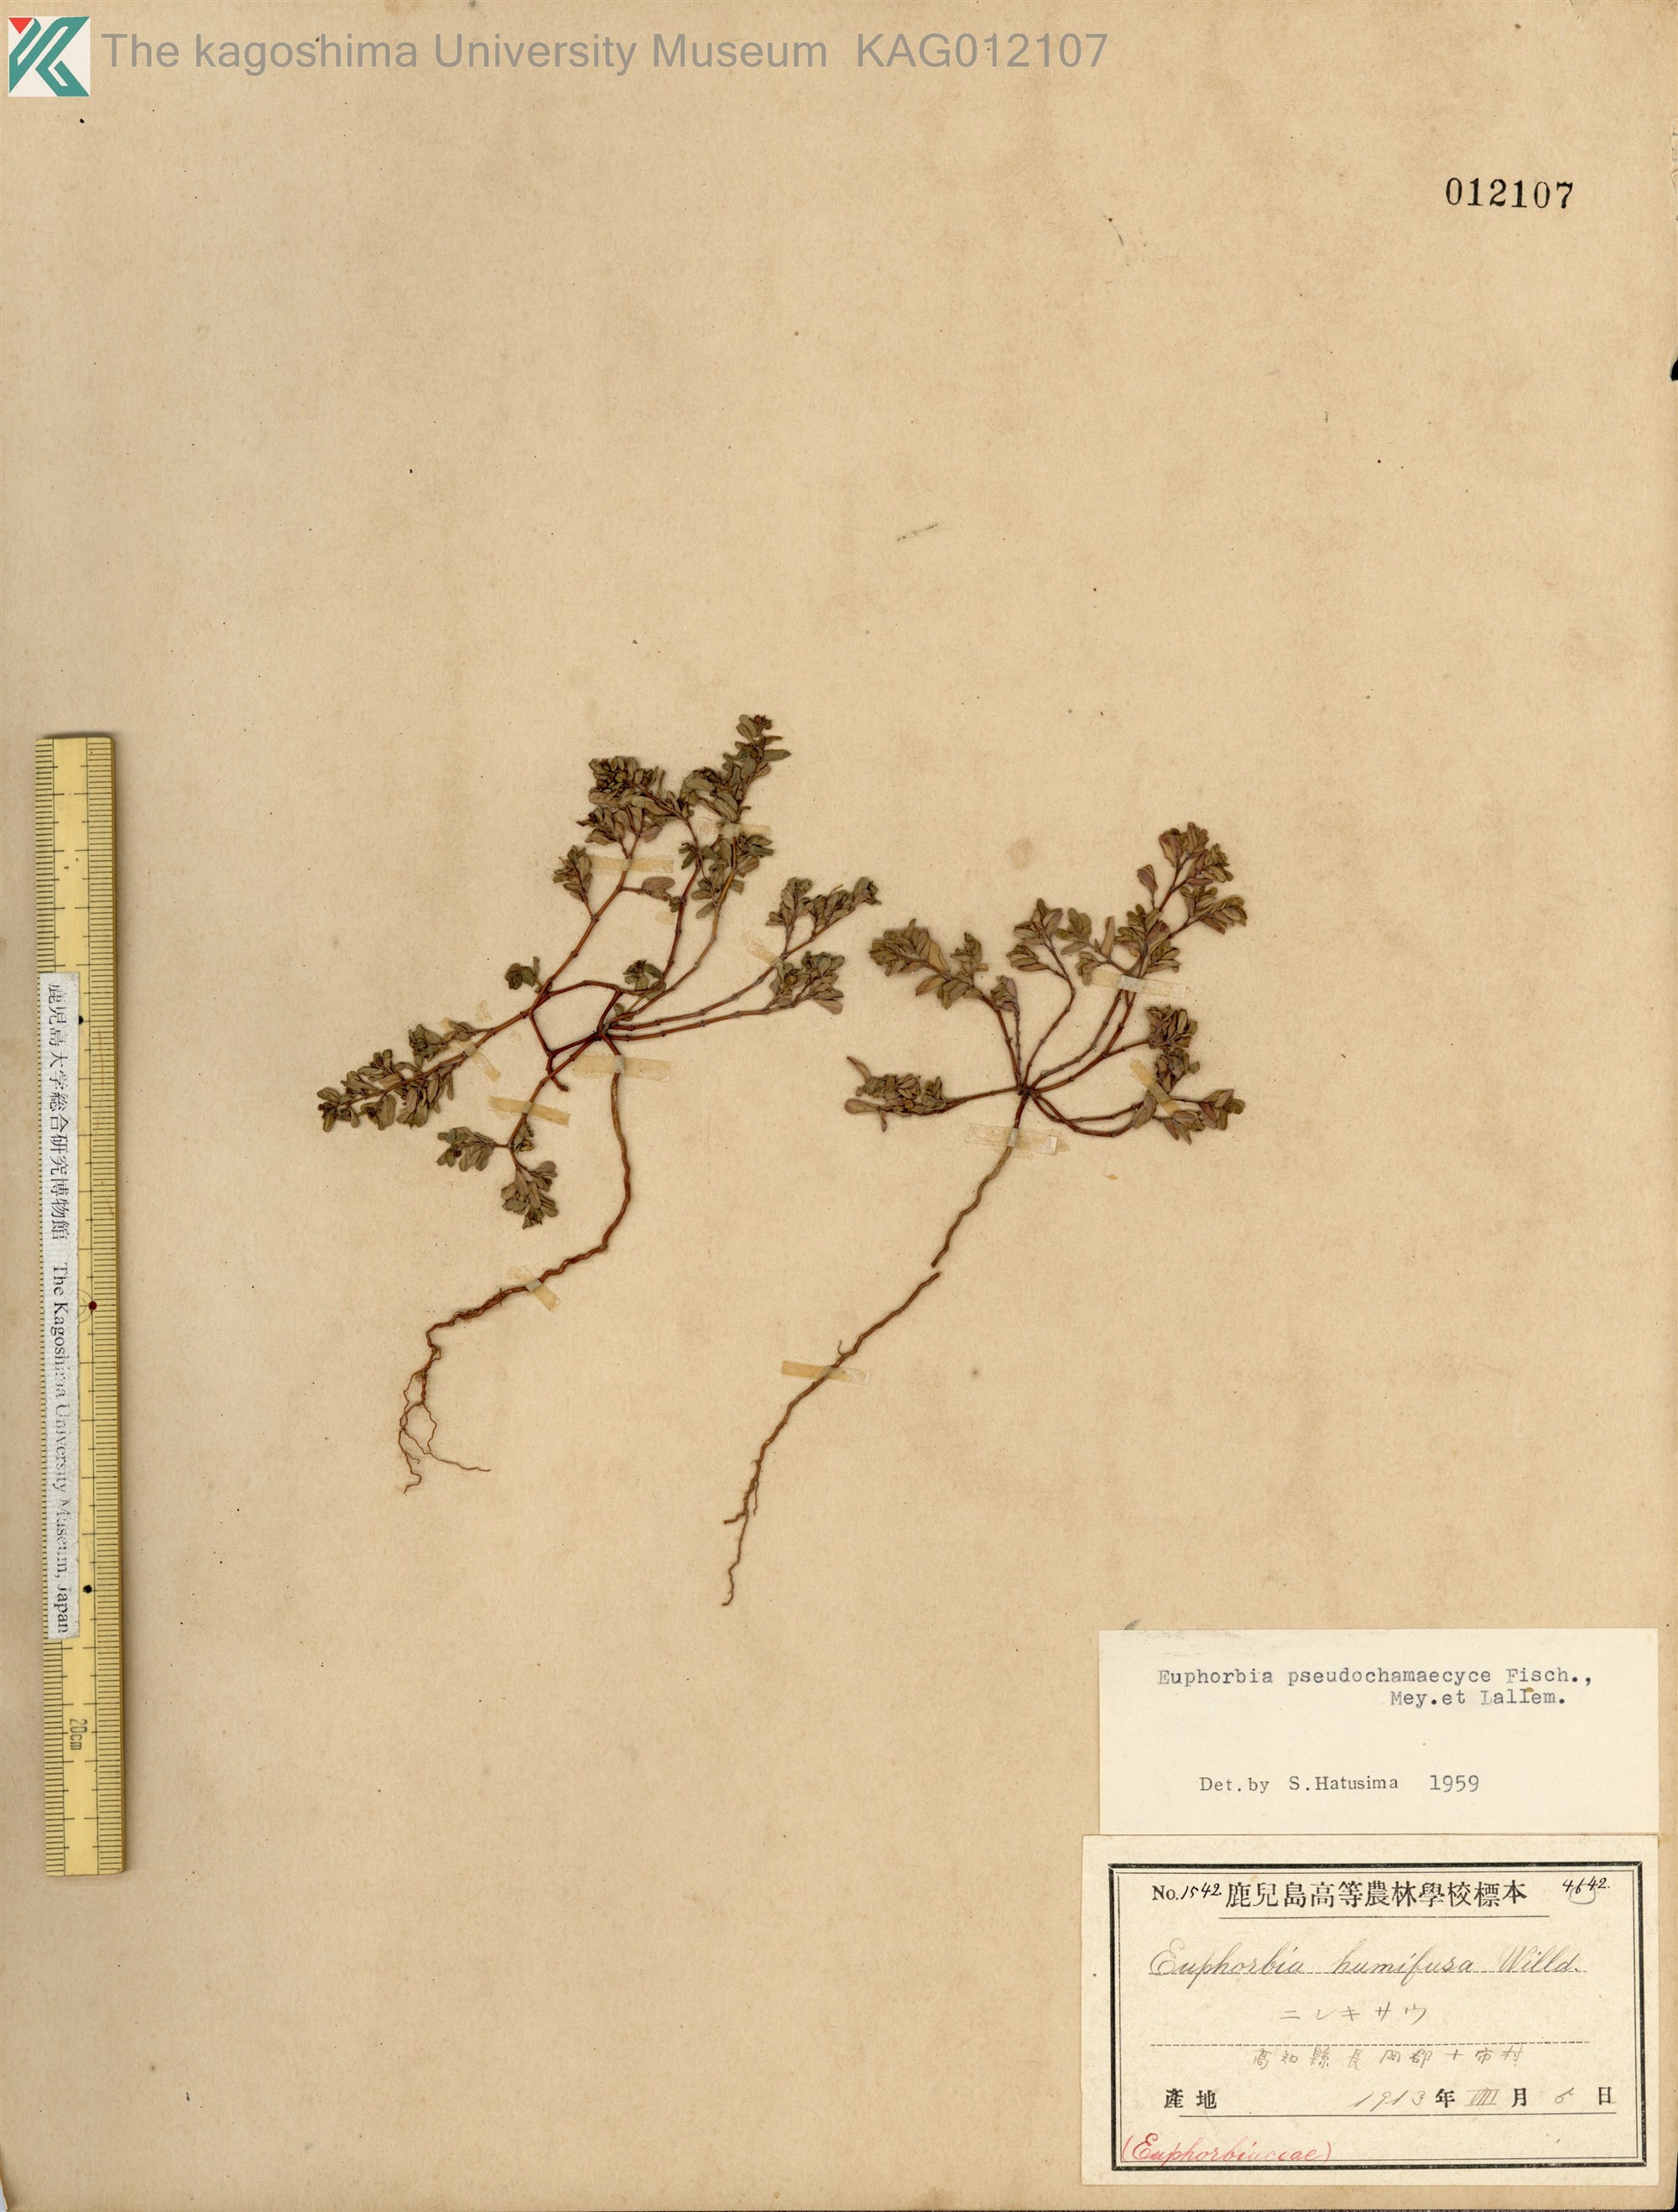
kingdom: Plantae
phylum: Tracheophyta
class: Magnoliopsida
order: Malpighiales
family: Euphorbiaceae
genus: Euphorbia
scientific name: Euphorbia humifusa
